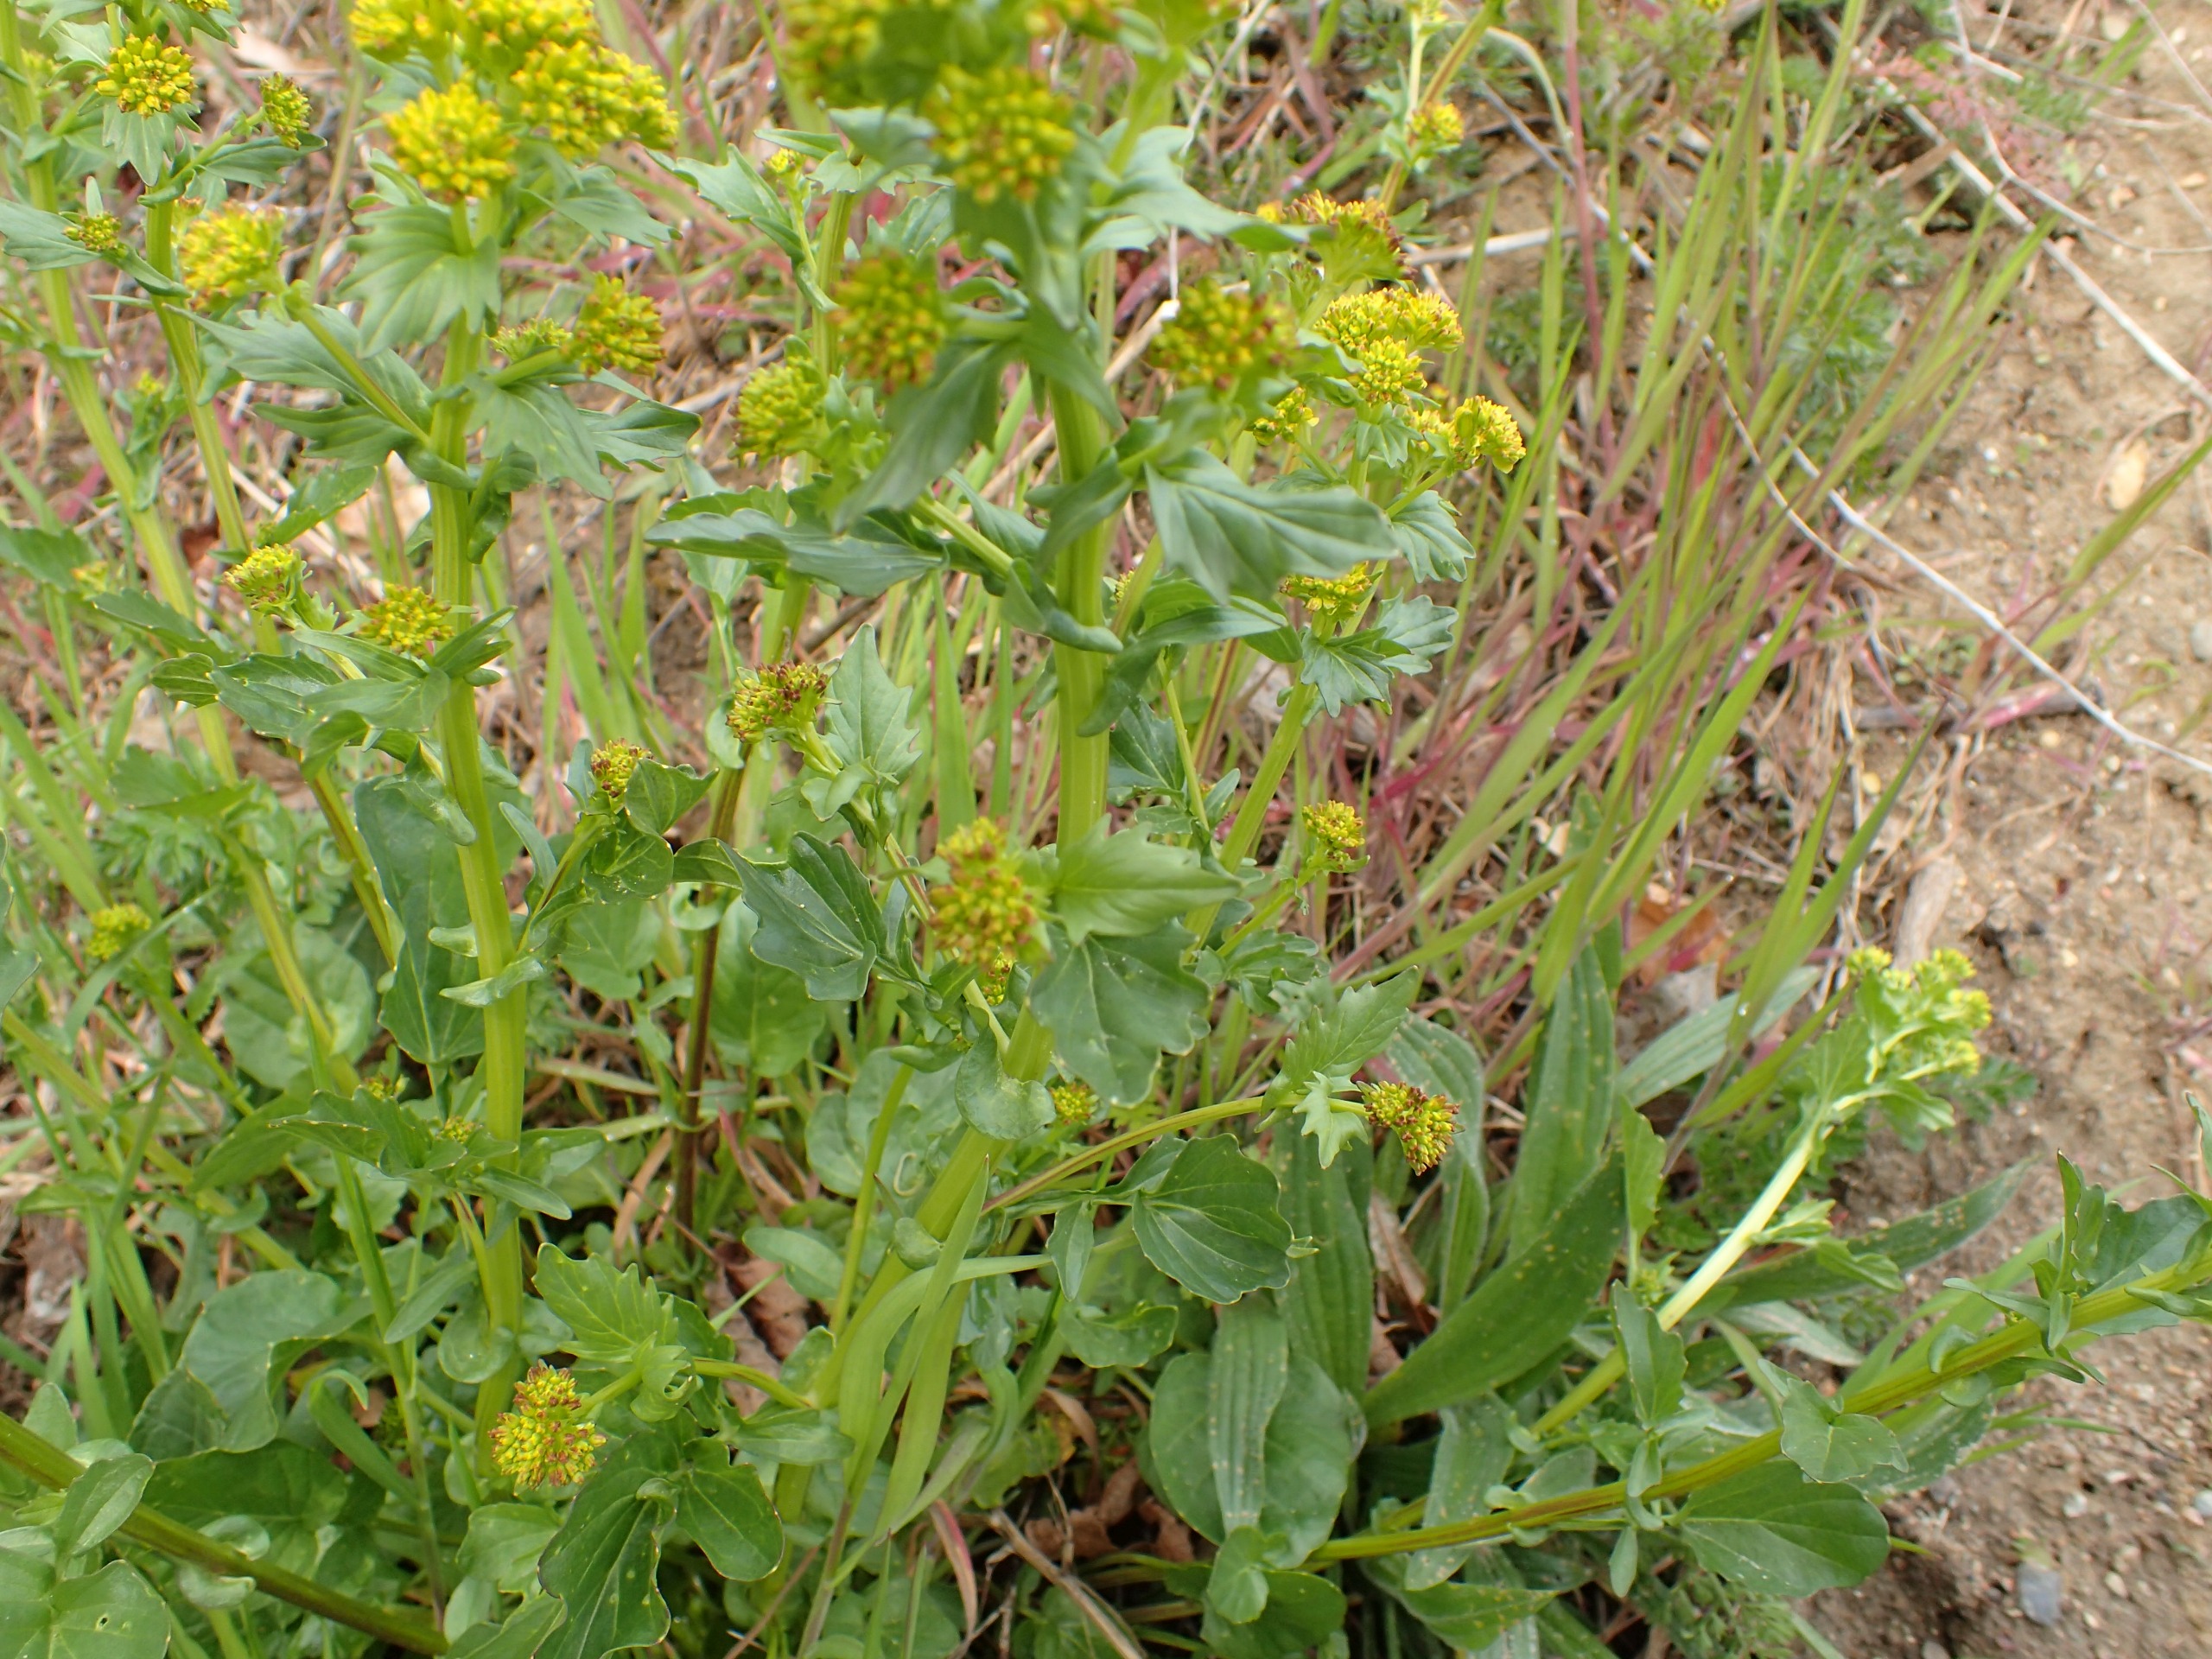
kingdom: Plantae
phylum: Tracheophyta
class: Magnoliopsida
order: Brassicales
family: Brassicaceae
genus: Barbarea
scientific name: Barbarea vulgaris
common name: Almindelig vinterkarse
